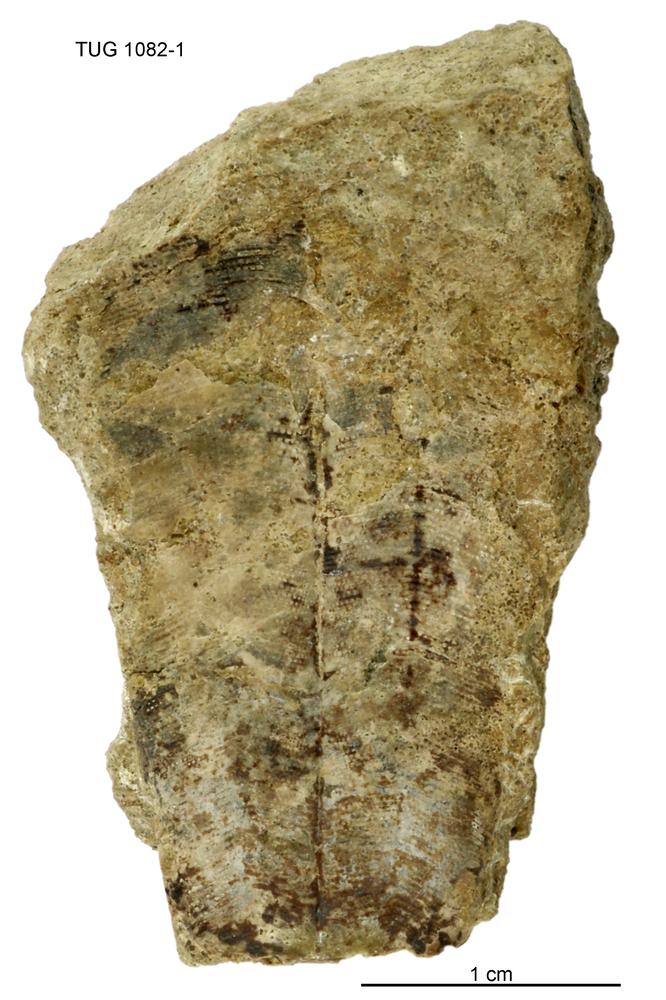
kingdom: Animalia
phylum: Cnidaria
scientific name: Cnidaria
